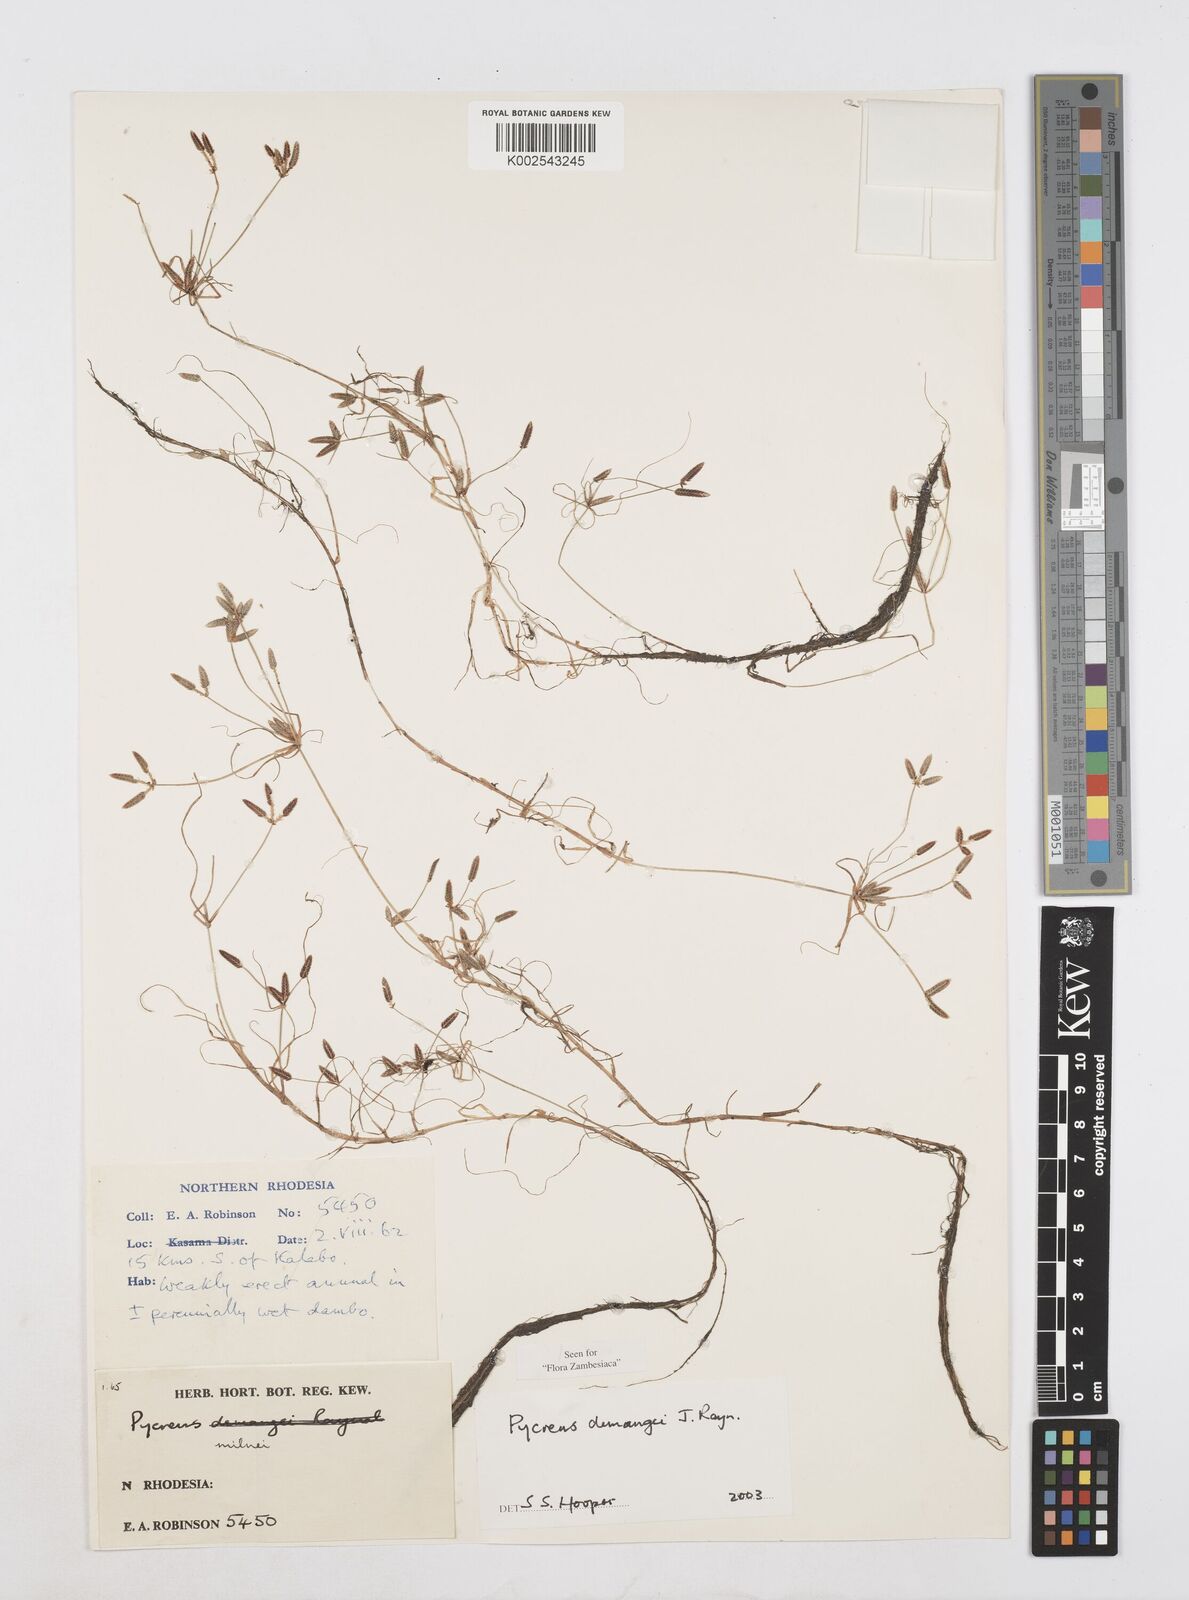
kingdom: Plantae
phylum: Tracheophyta
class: Liliopsida
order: Poales
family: Cyperaceae
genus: Cyperus
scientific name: Cyperus demangei
